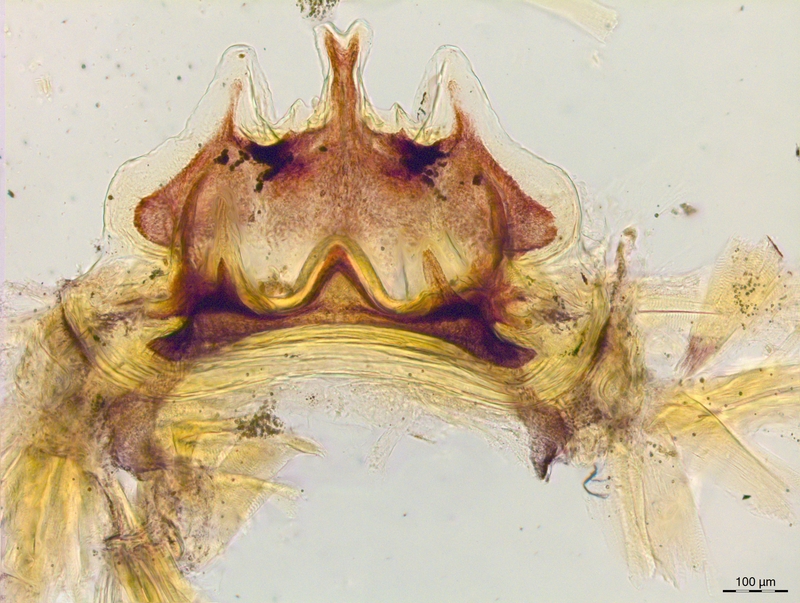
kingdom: Animalia
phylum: Arthropoda
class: Diplopoda
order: Chordeumatida
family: Craspedosomatidae
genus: Craspedosoma
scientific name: Craspedosoma rawlinsii
